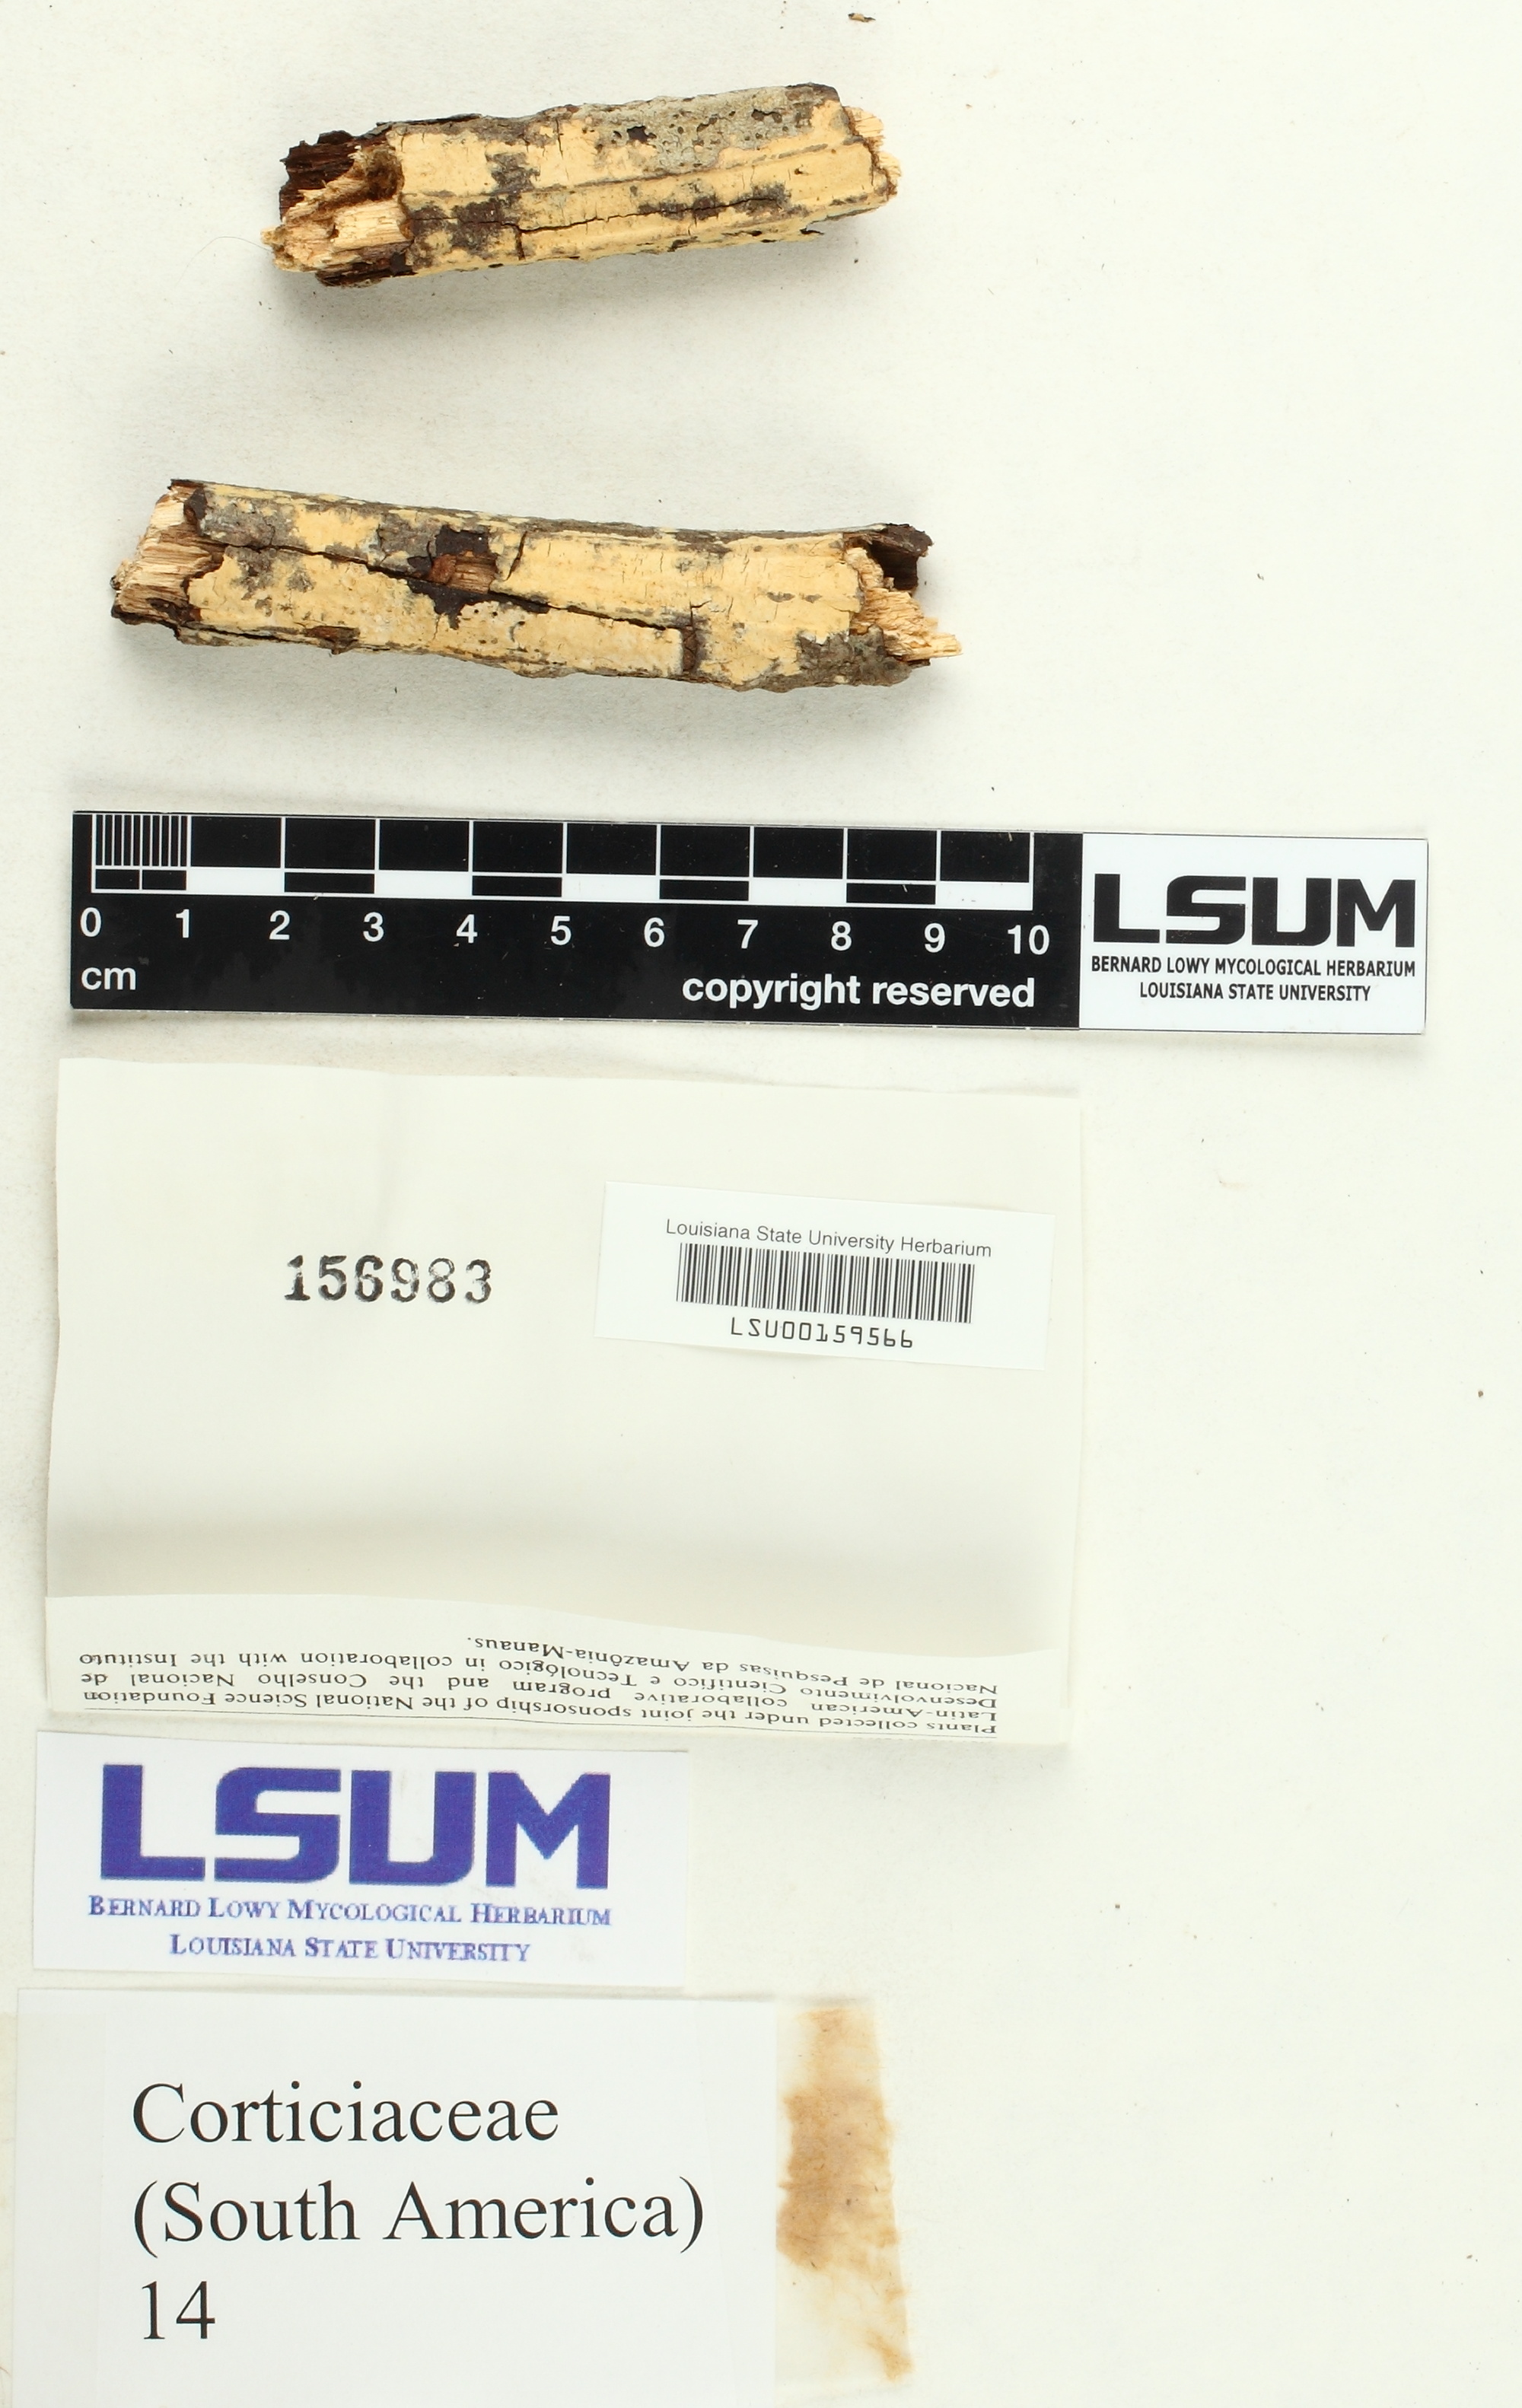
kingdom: Fungi
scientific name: Fungi
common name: Fungi
